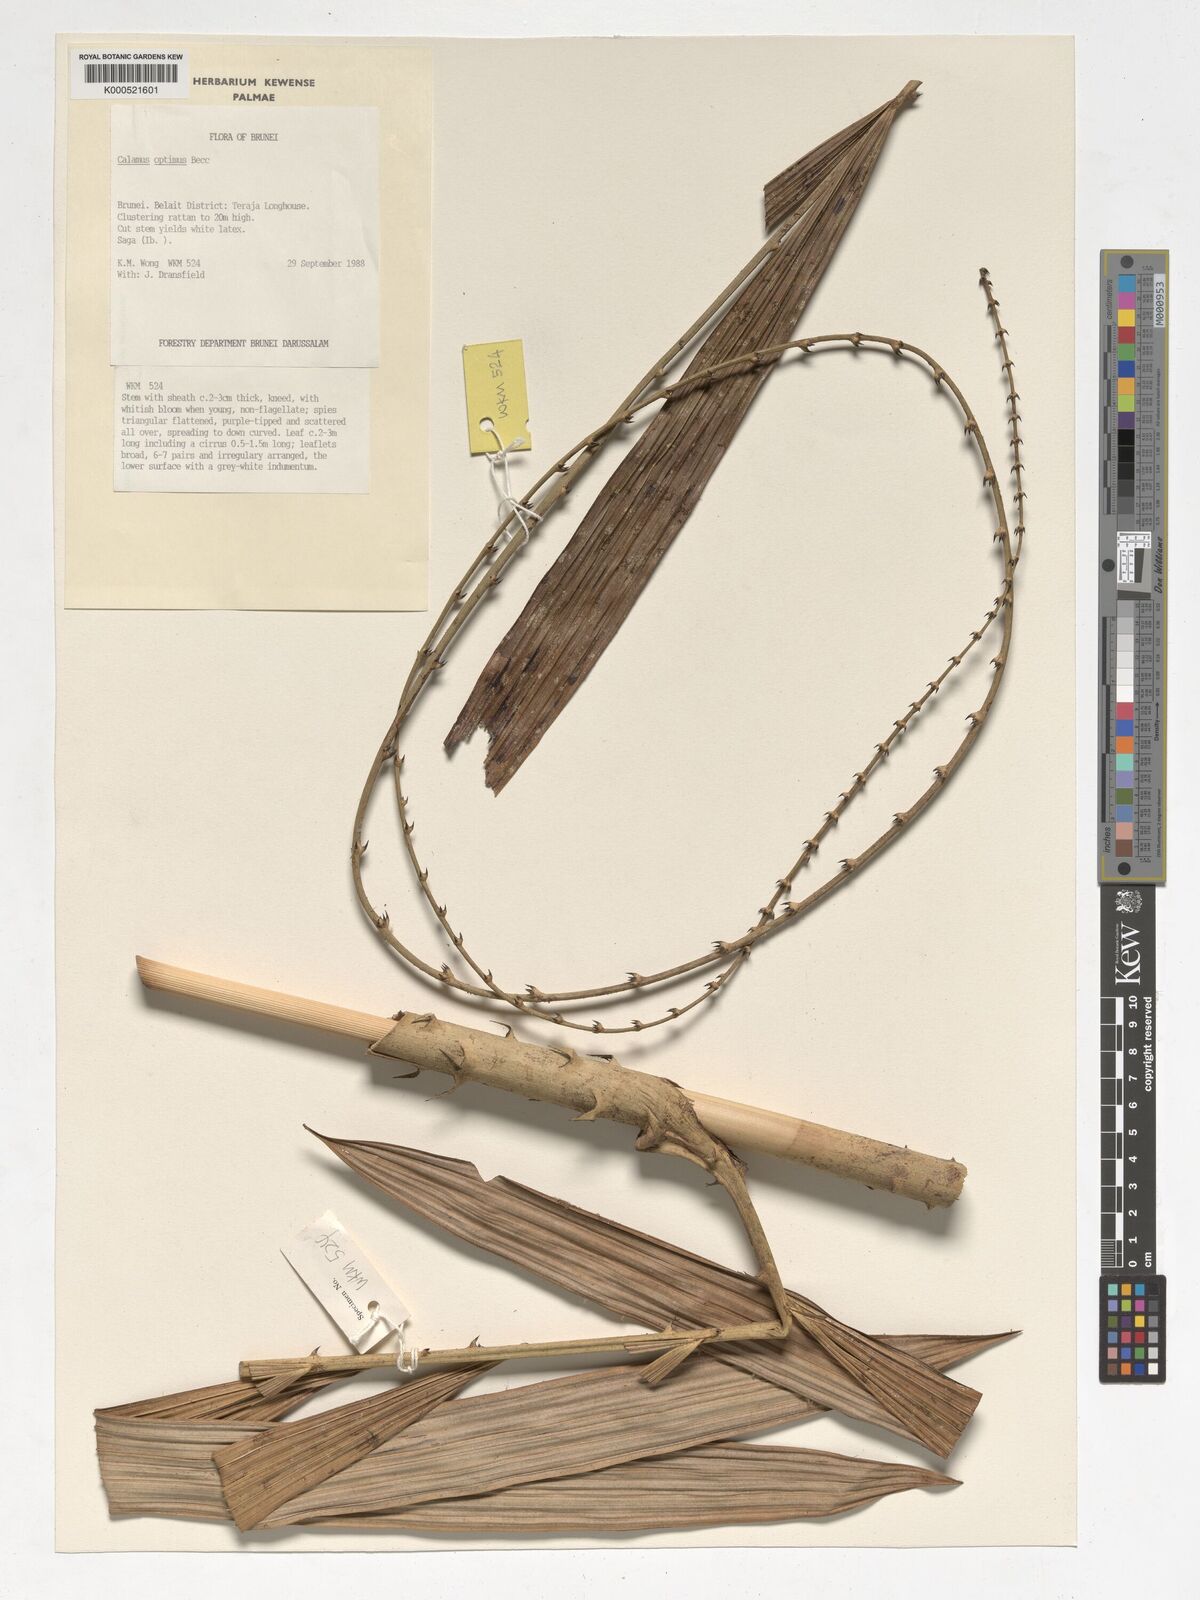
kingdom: Plantae
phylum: Tracheophyta
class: Liliopsida
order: Arecales
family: Arecaceae
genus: Calamus
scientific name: Calamus optimus
